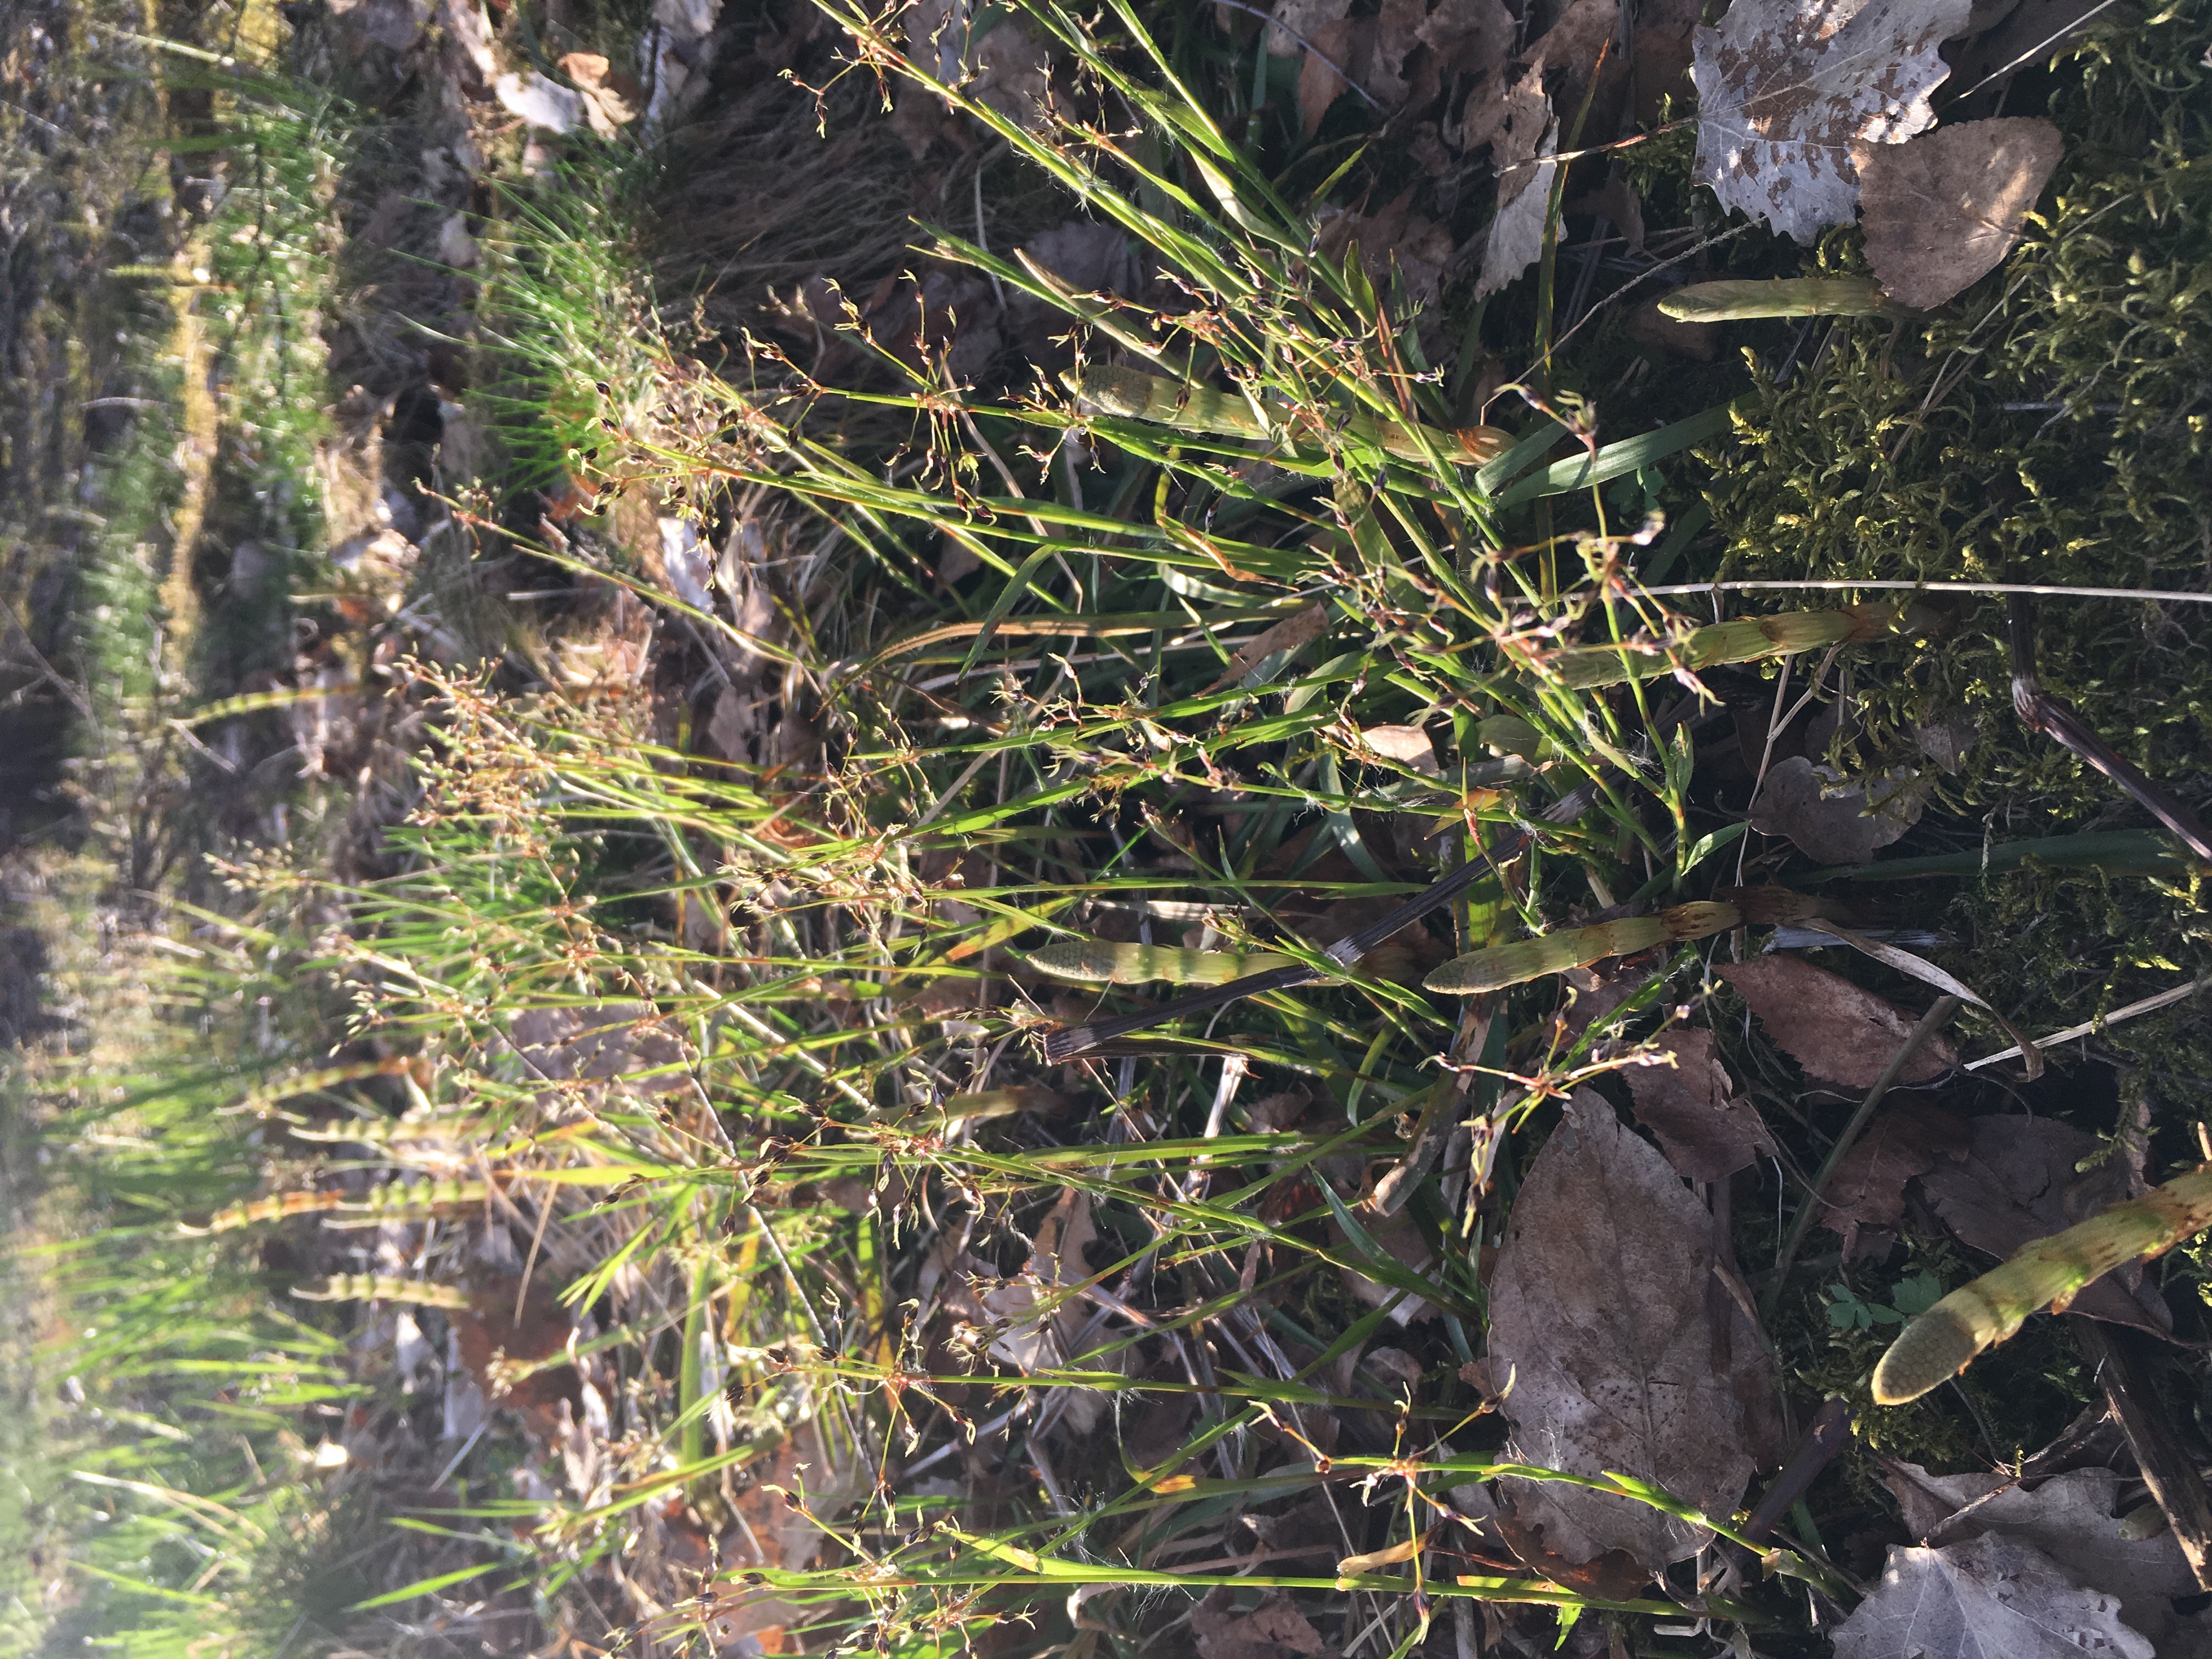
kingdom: Plantae
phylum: Tracheophyta
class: Liliopsida
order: Poales
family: Juncaceae
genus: Luzula
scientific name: Luzula pilosa
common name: Hairy wood-rush
